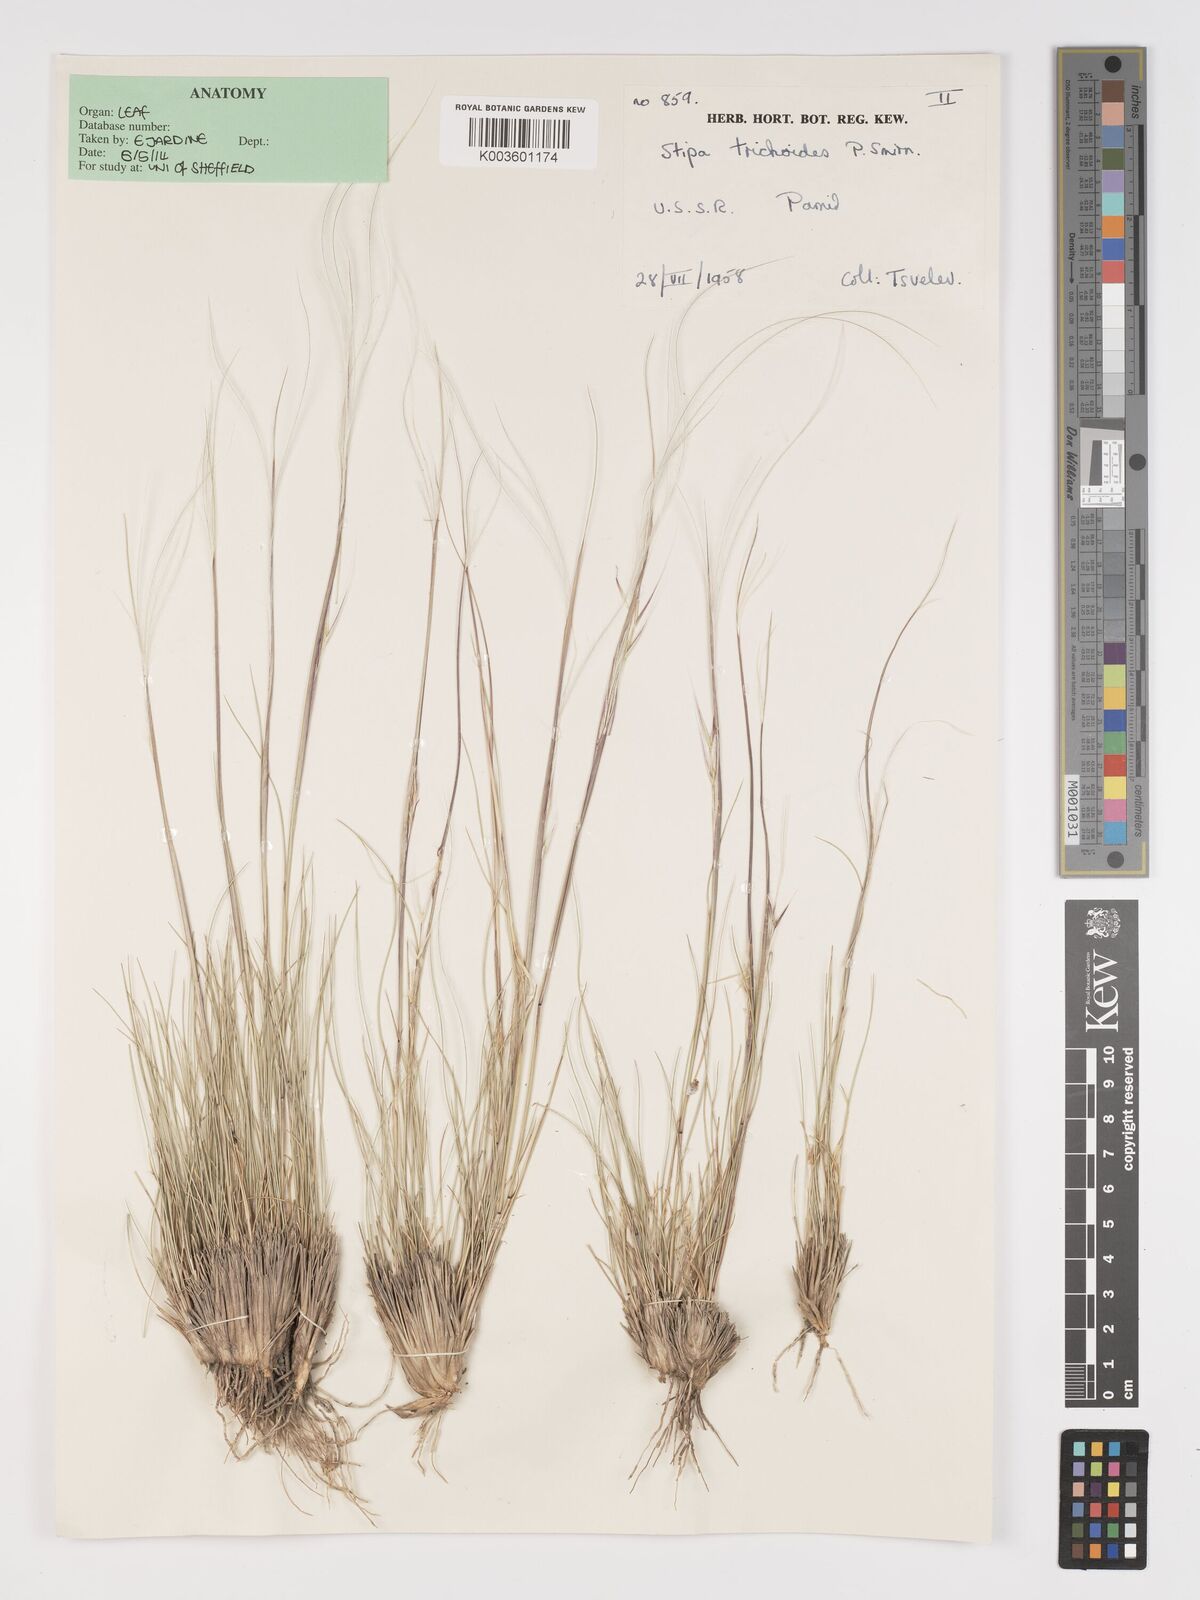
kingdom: Plantae
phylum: Tracheophyta
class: Liliopsida
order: Poales
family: Poaceae
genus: Stipa
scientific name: Stipa turkestanica
